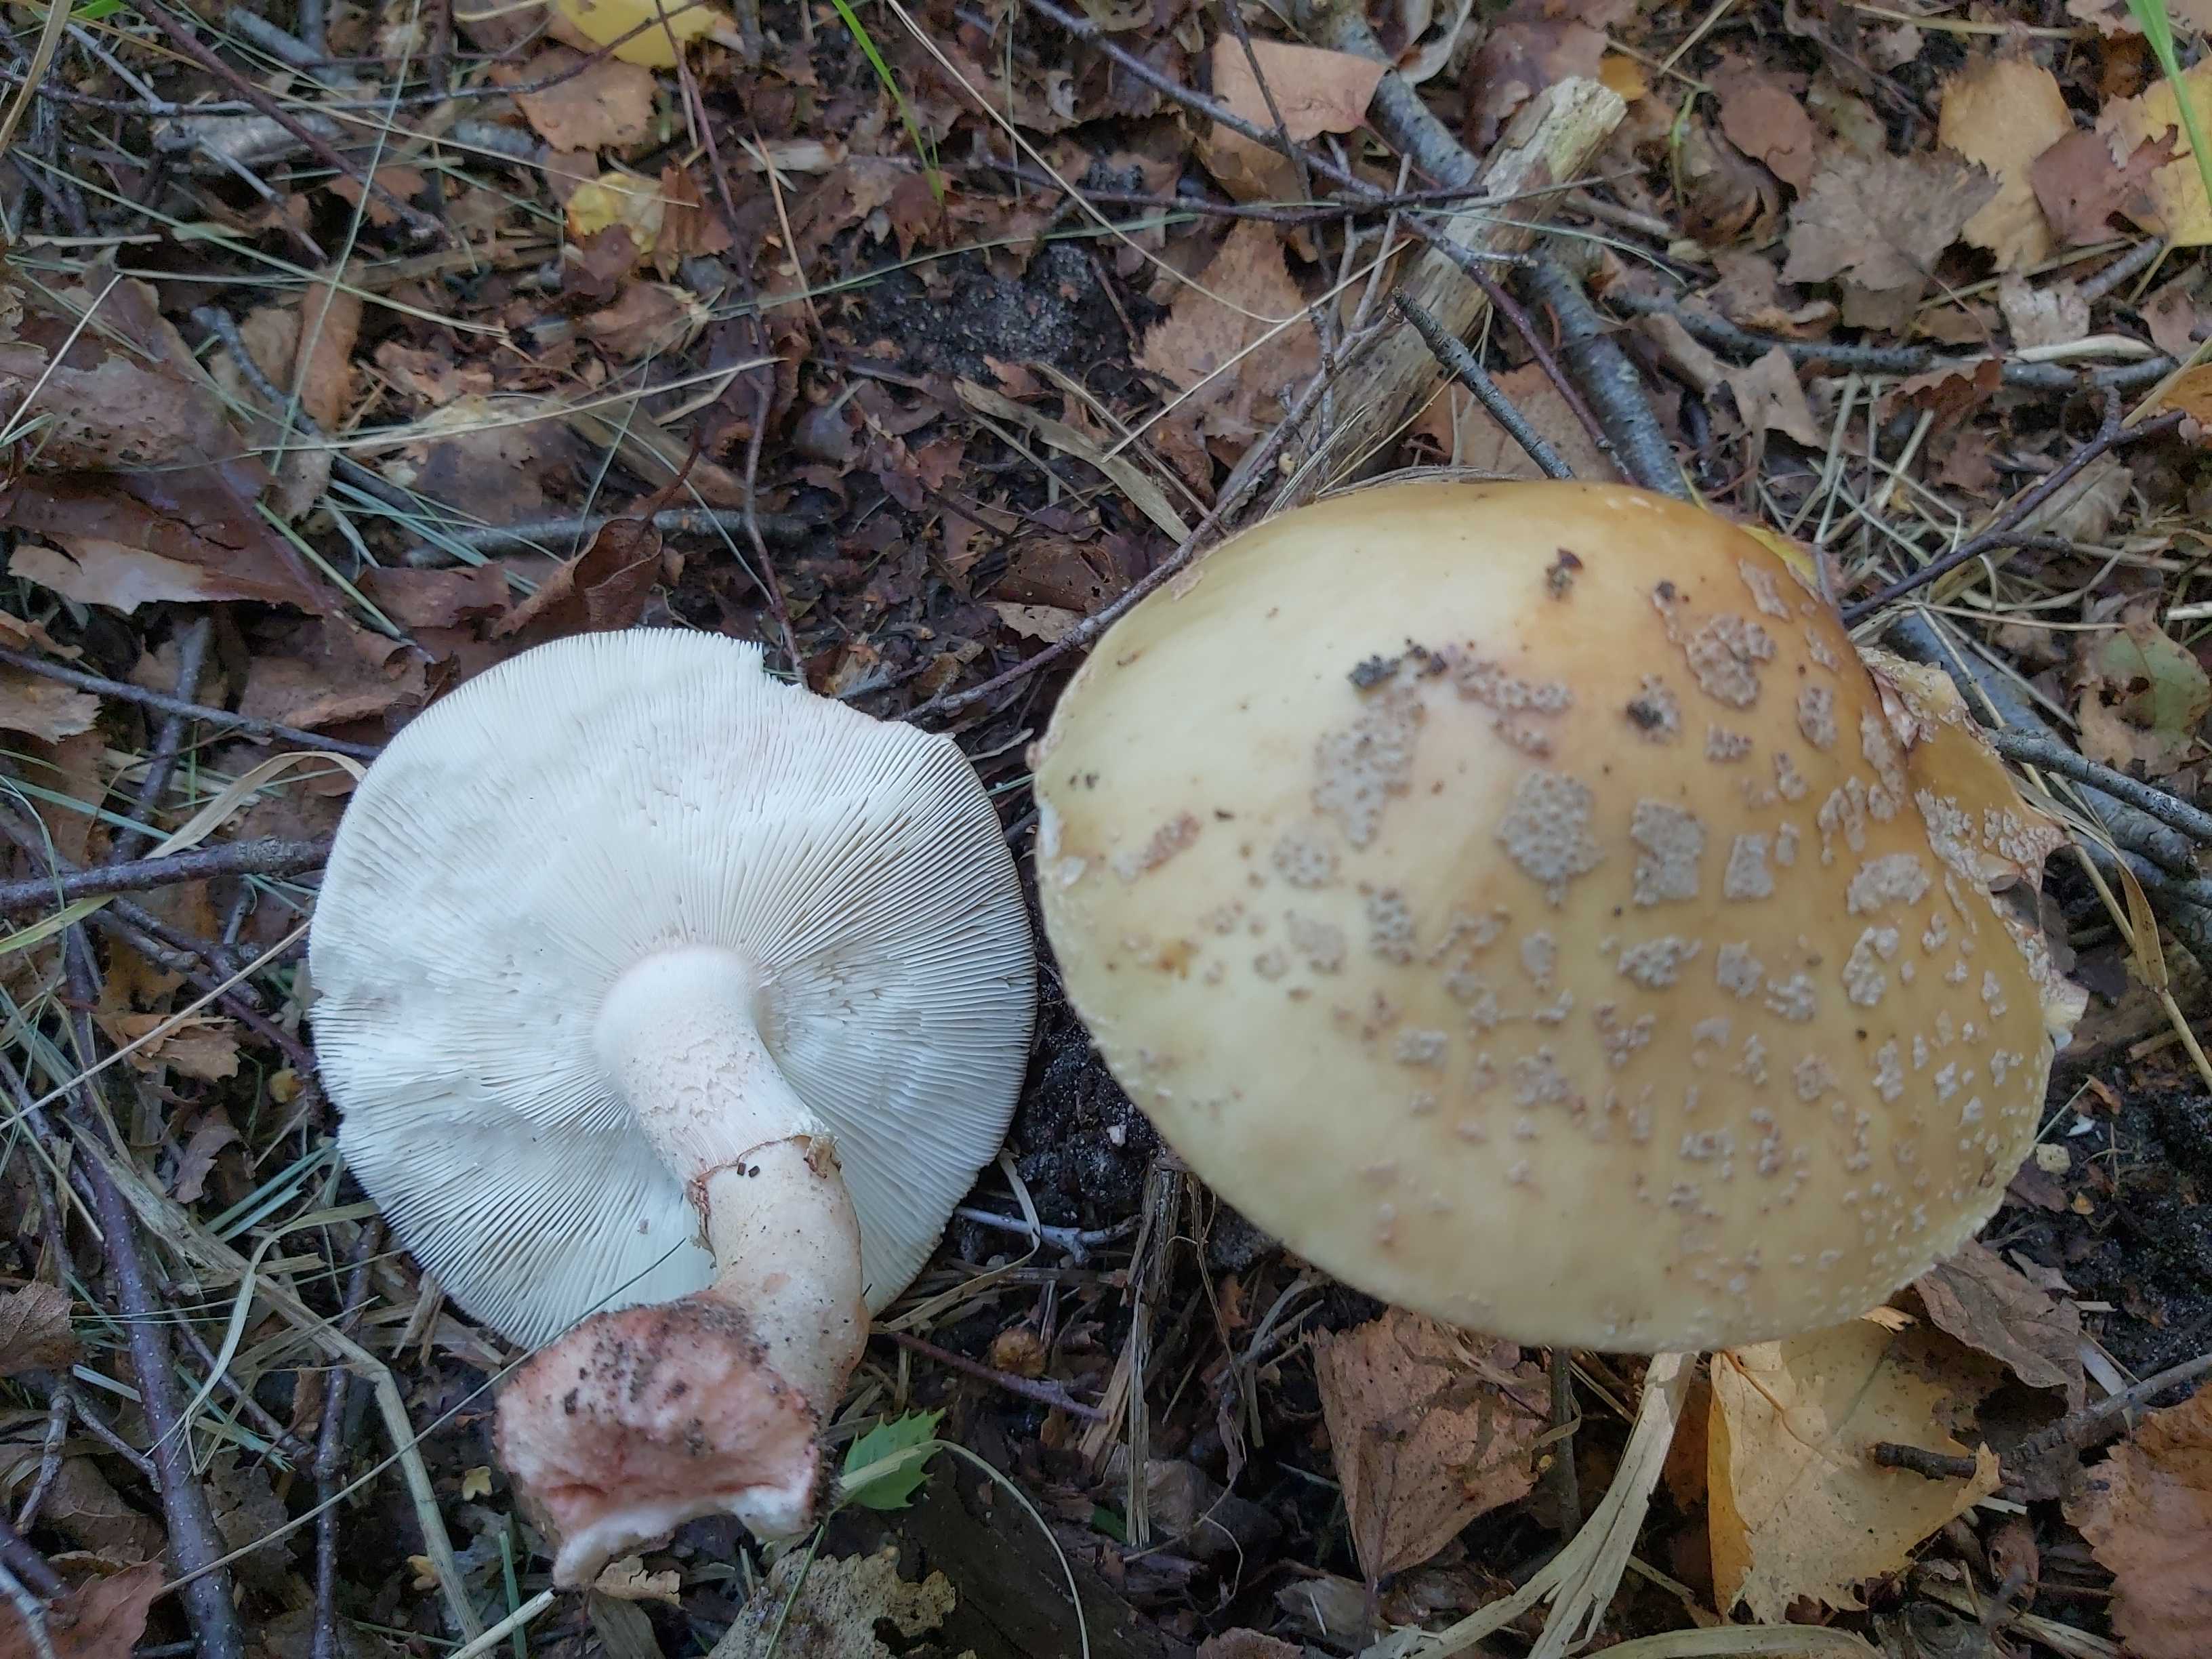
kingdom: Fungi
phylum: Basidiomycota
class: Agaricomycetes
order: Agaricales
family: Amanitaceae
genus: Amanita
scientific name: Amanita rubescens
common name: rødmende fluesvamp
